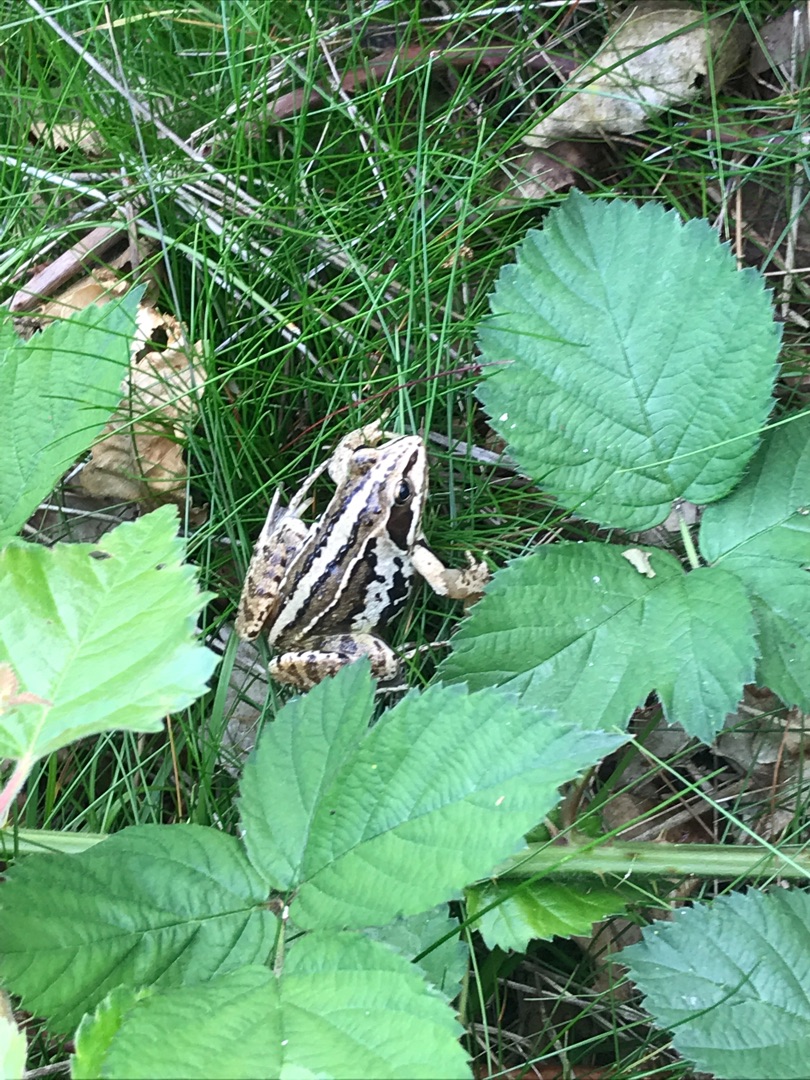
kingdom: Animalia
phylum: Chordata
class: Amphibia
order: Anura
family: Ranidae
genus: Rana
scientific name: Rana arvalis
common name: Spidssnudet frø
